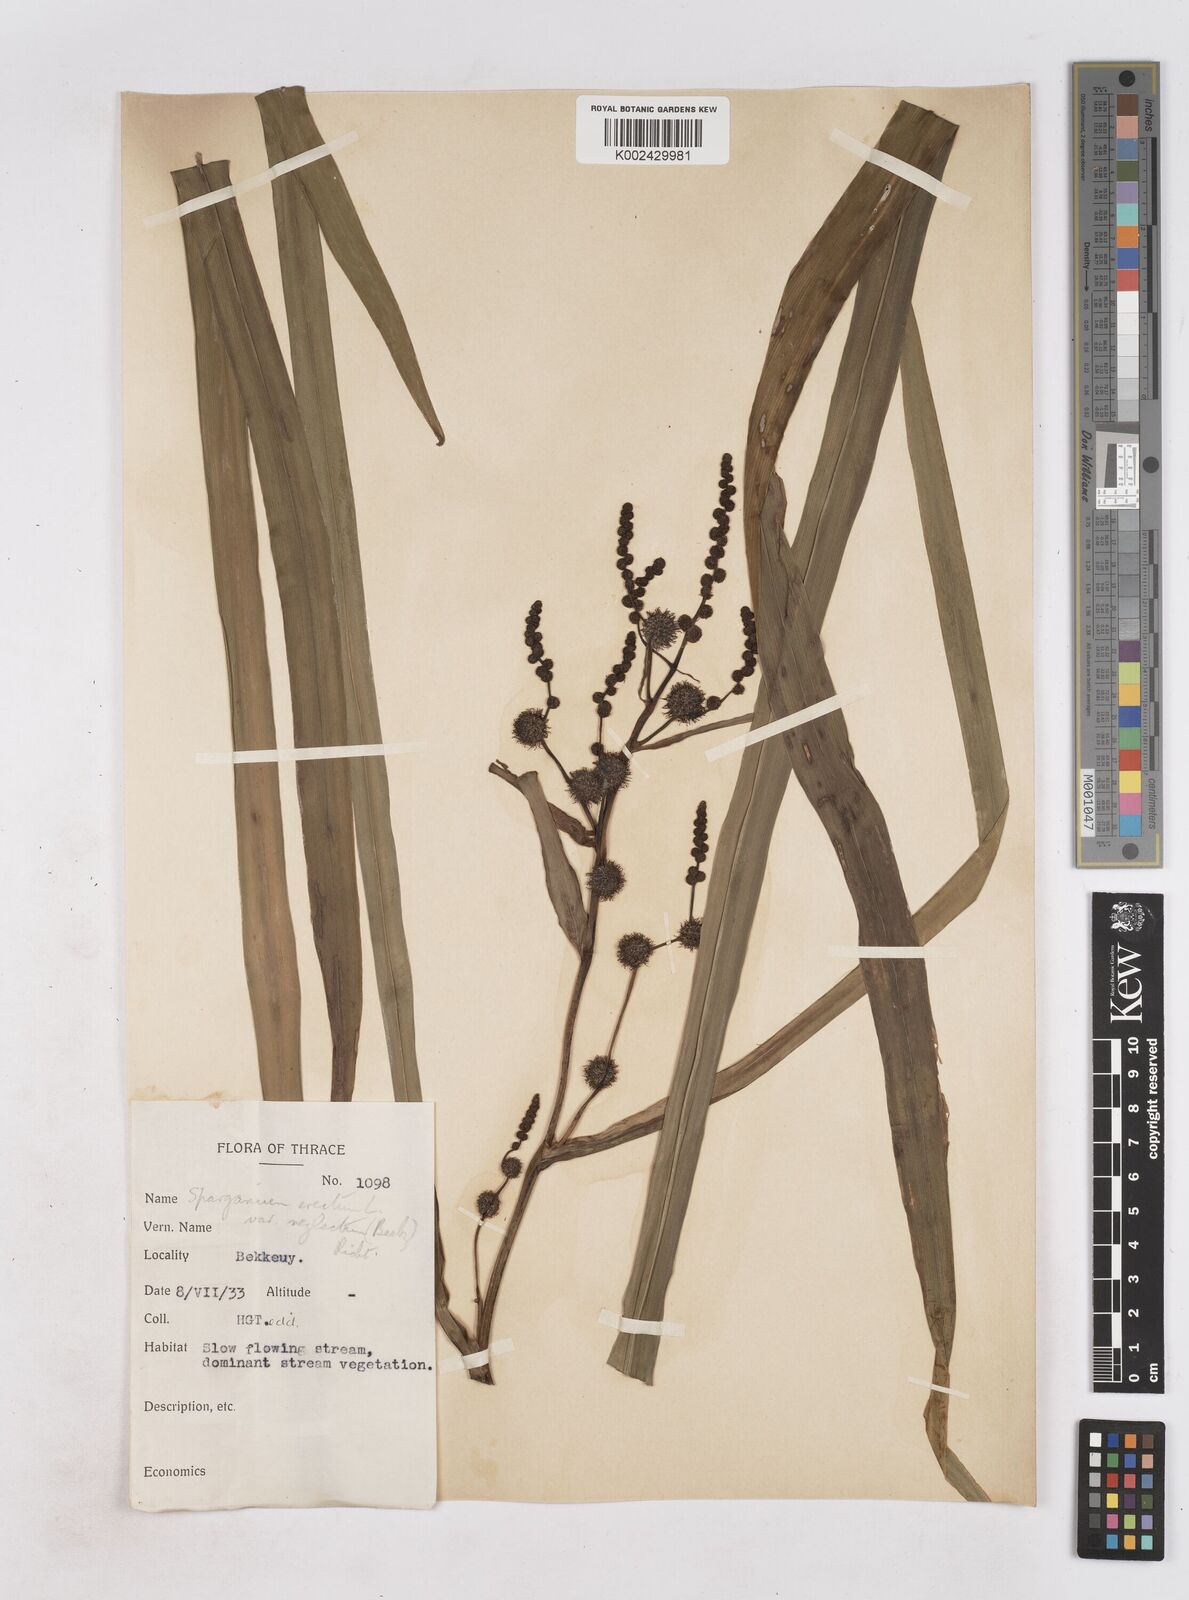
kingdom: Plantae
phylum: Tracheophyta
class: Liliopsida
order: Poales
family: Typhaceae
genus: Sparganium
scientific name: Sparganium erectum
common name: Branched bur-reed
